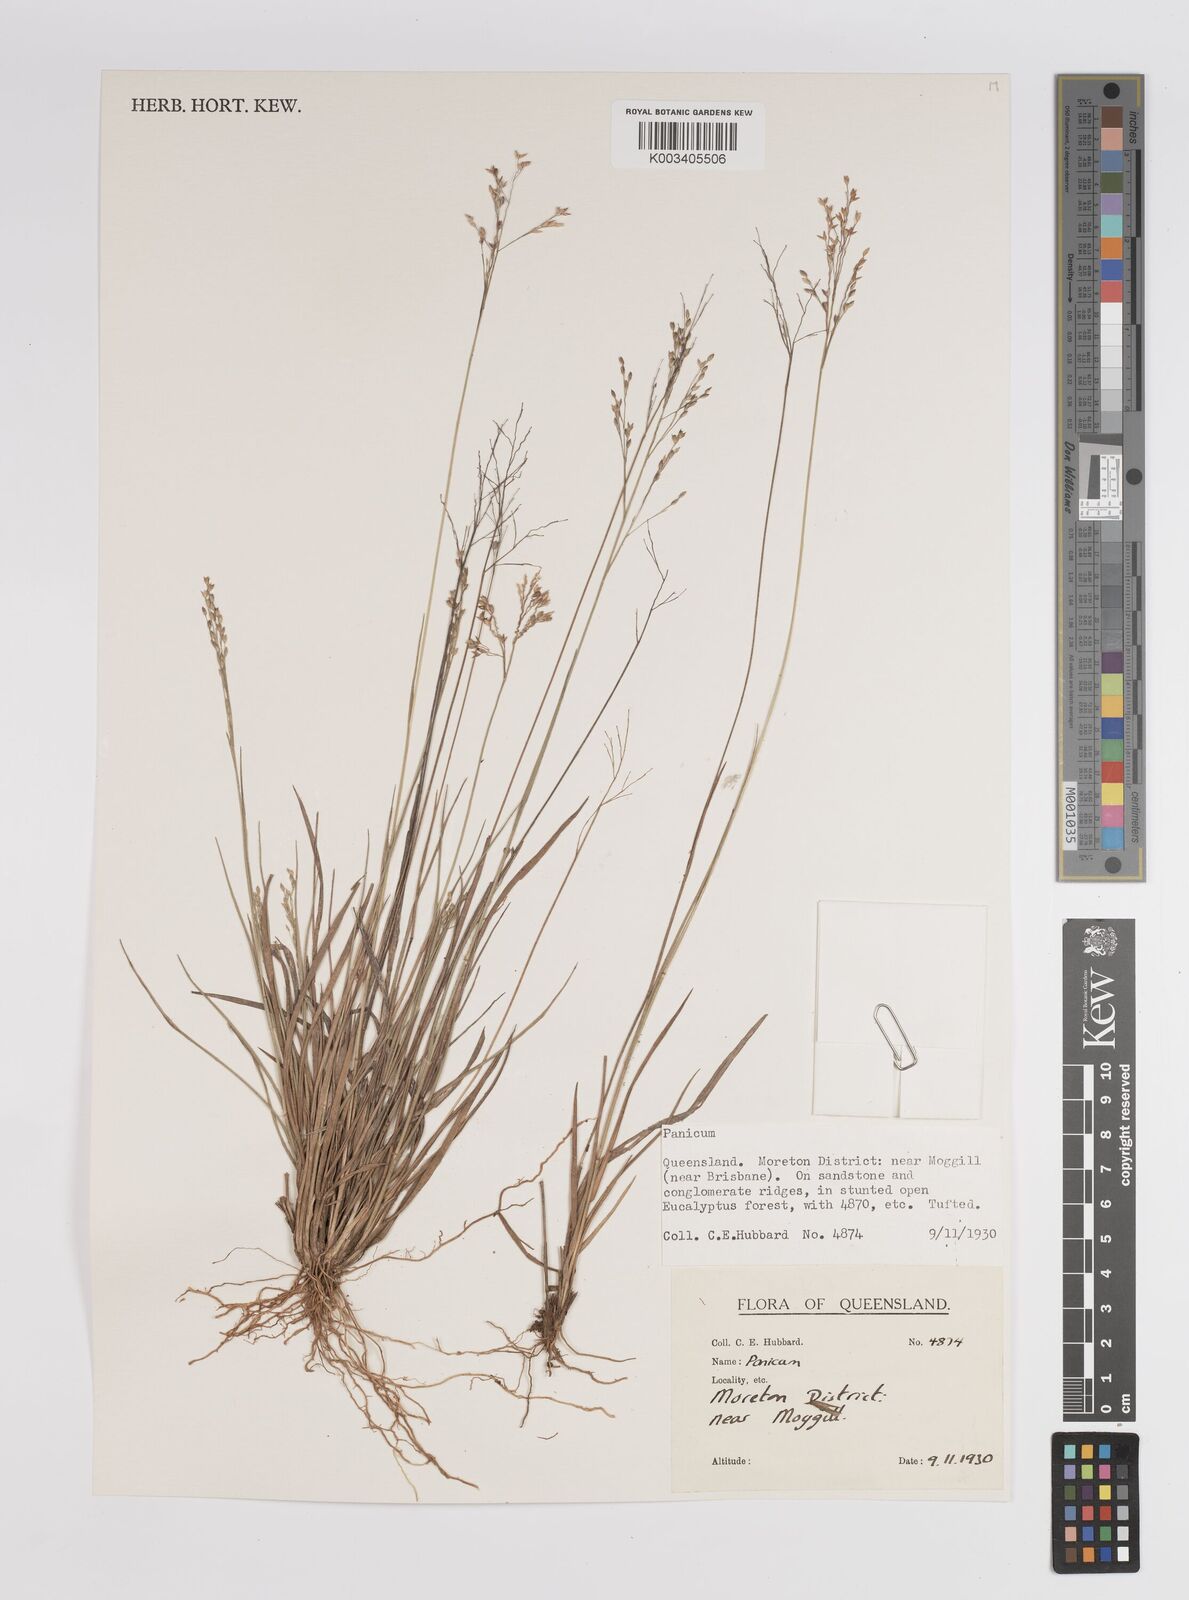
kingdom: Plantae
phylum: Tracheophyta
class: Liliopsida
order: Poales
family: Poaceae
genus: Panicum
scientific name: Panicum
